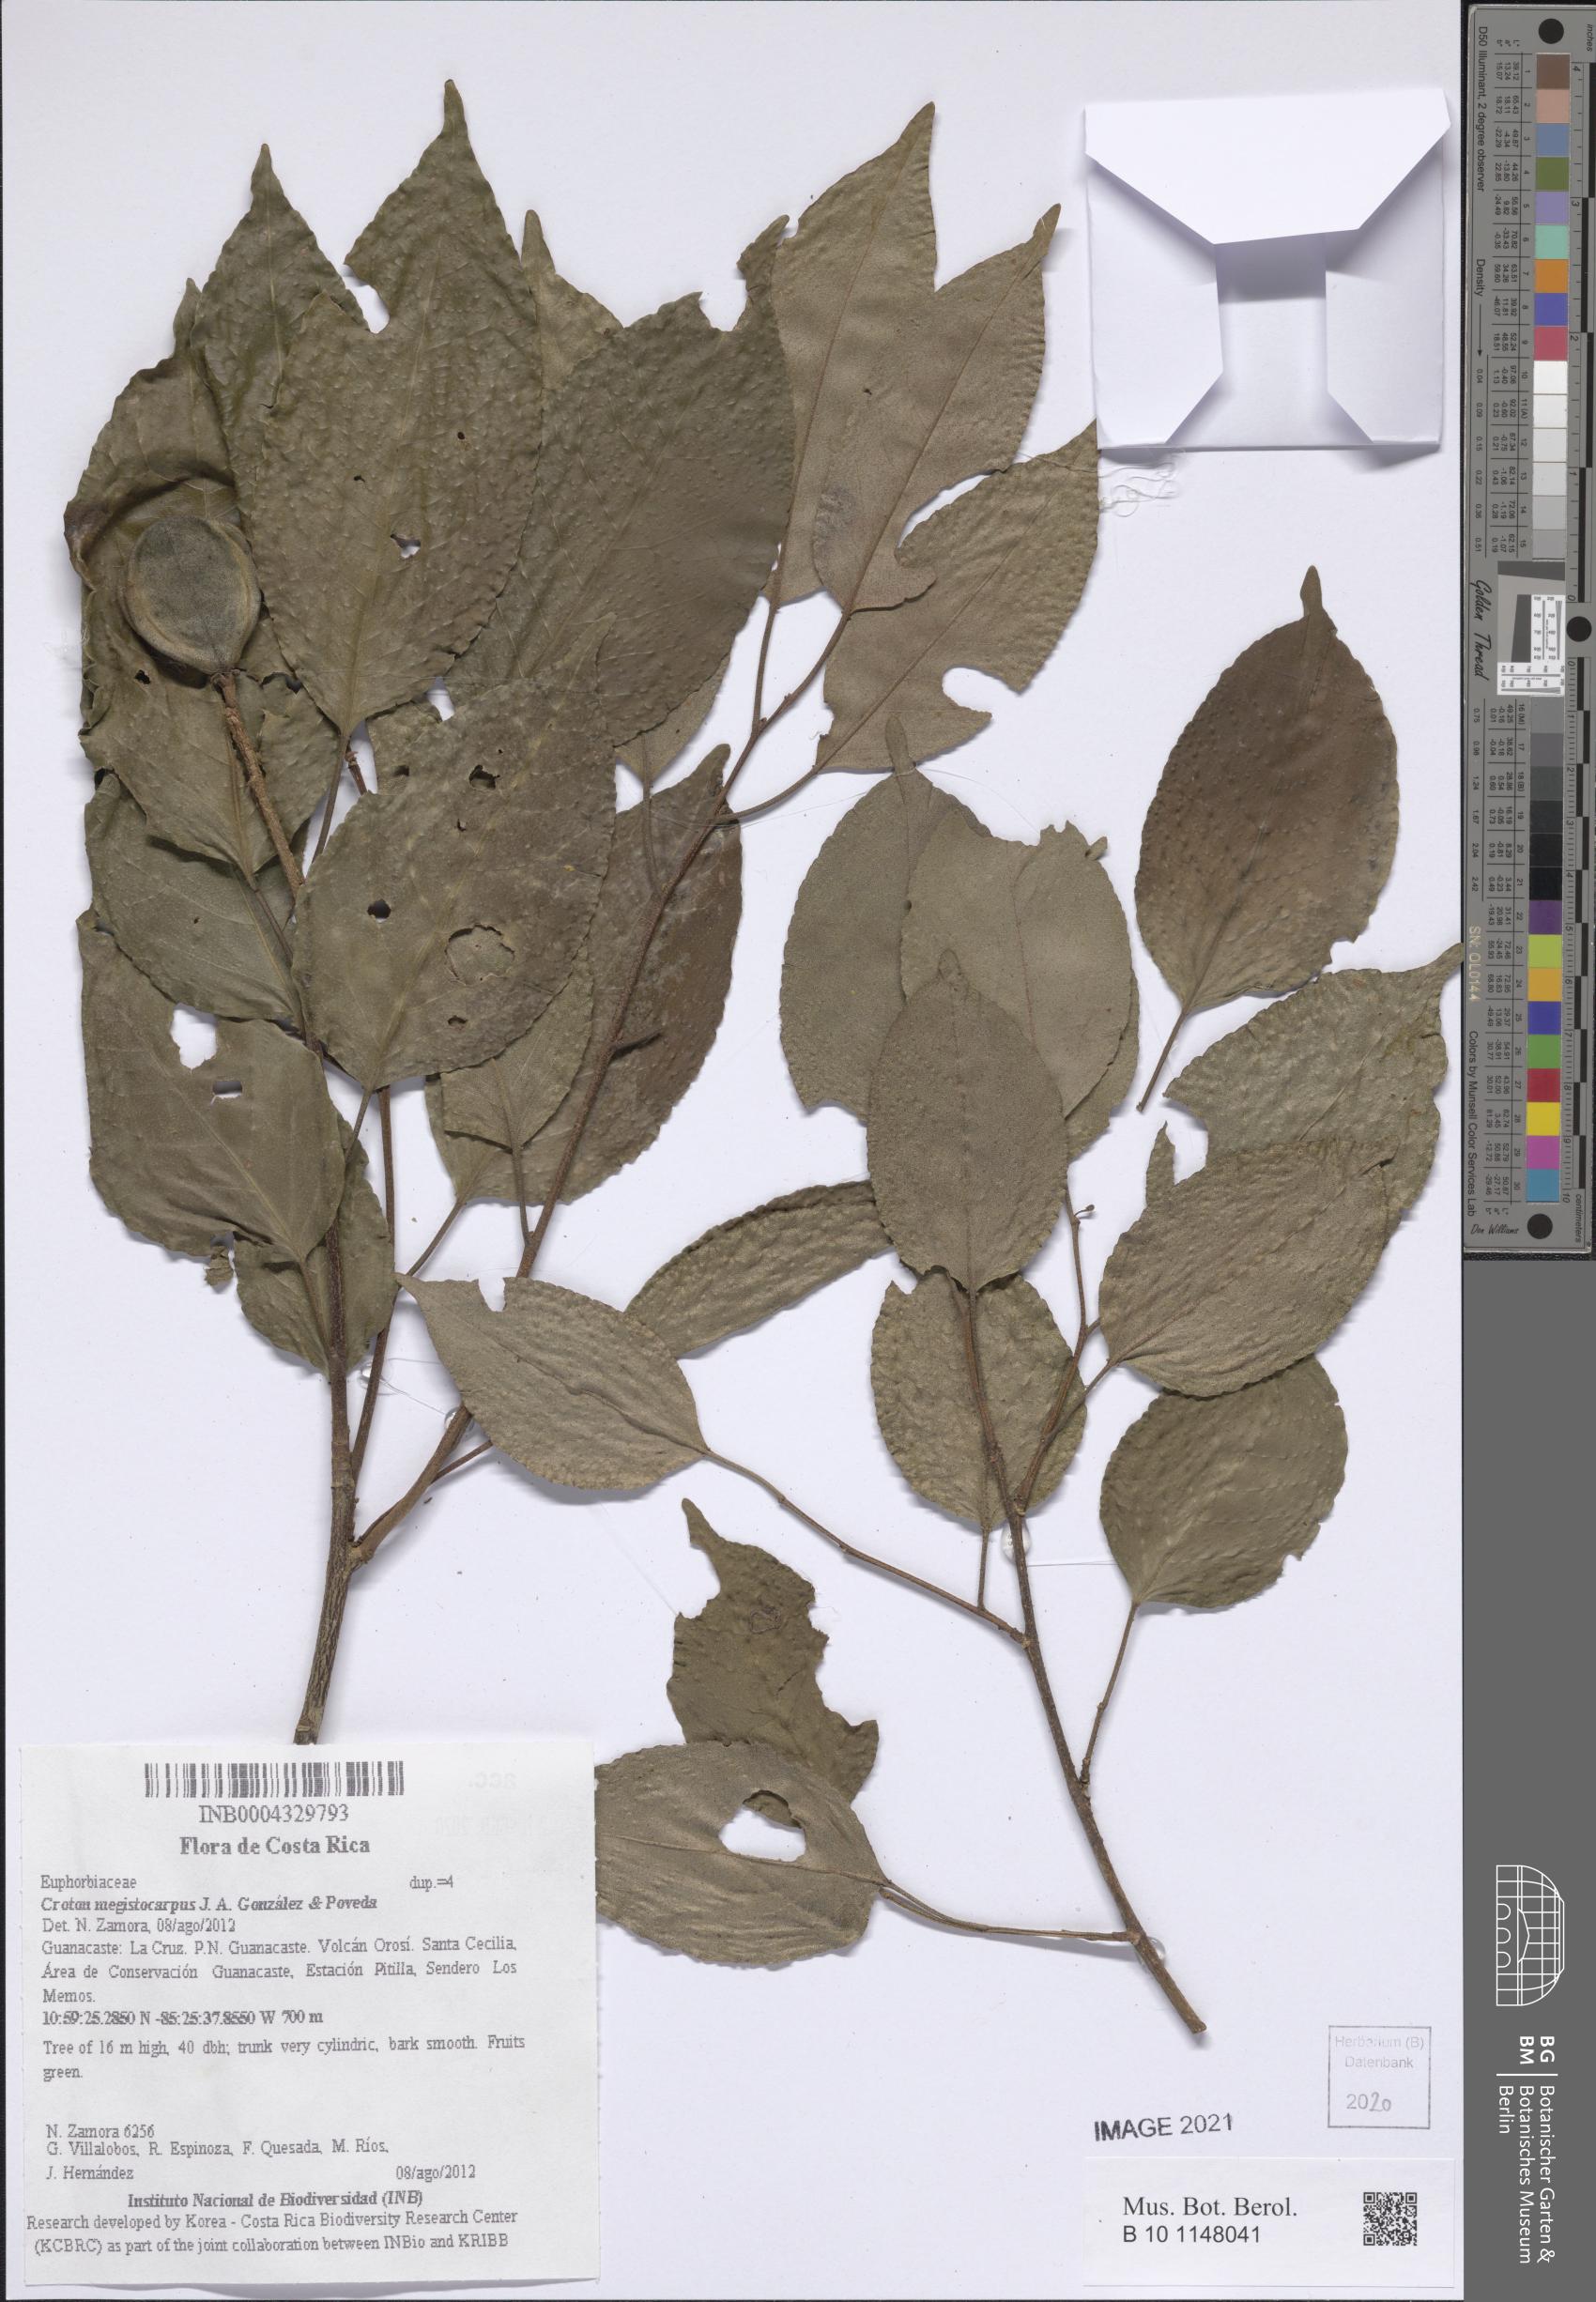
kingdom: Plantae
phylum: Tracheophyta
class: Magnoliopsida
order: Malpighiales
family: Euphorbiaceae
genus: Croton
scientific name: Croton megistocarpus
